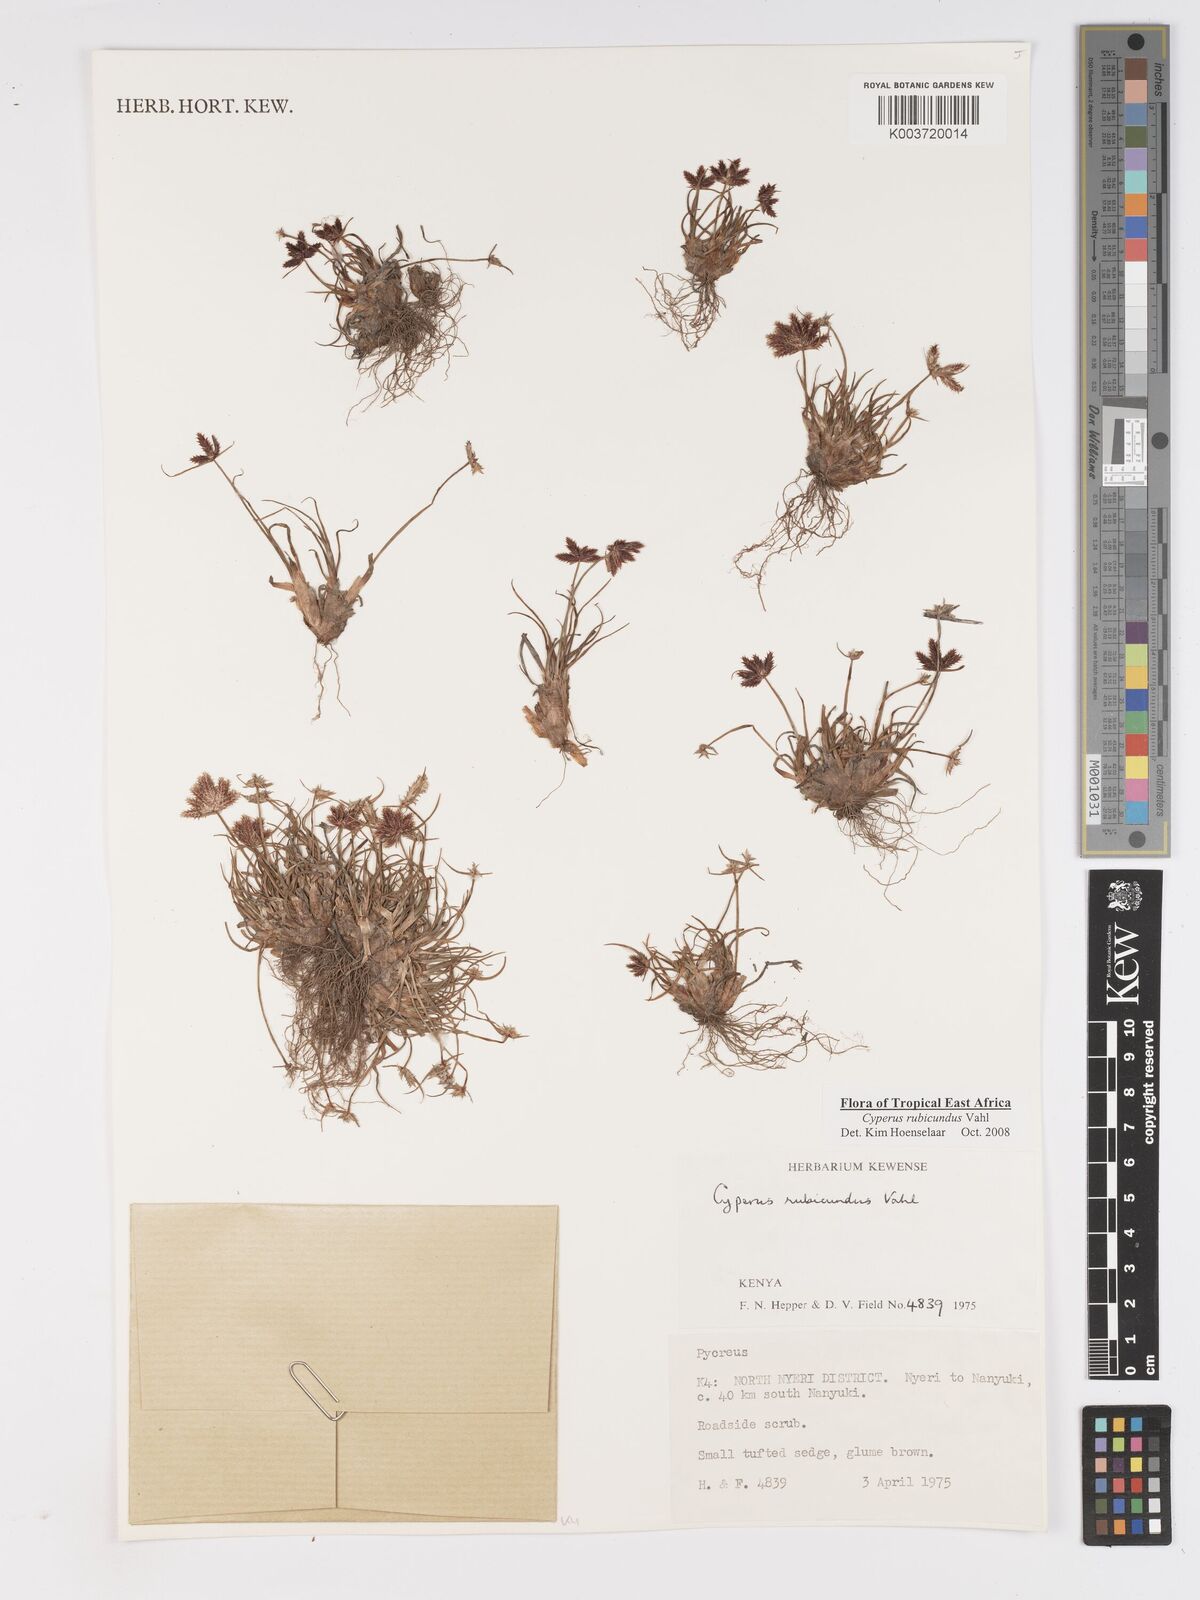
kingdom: Plantae
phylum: Tracheophyta
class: Liliopsida
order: Poales
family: Cyperaceae
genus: Cyperus
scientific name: Cyperus rubicundus
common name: Coco-grass
